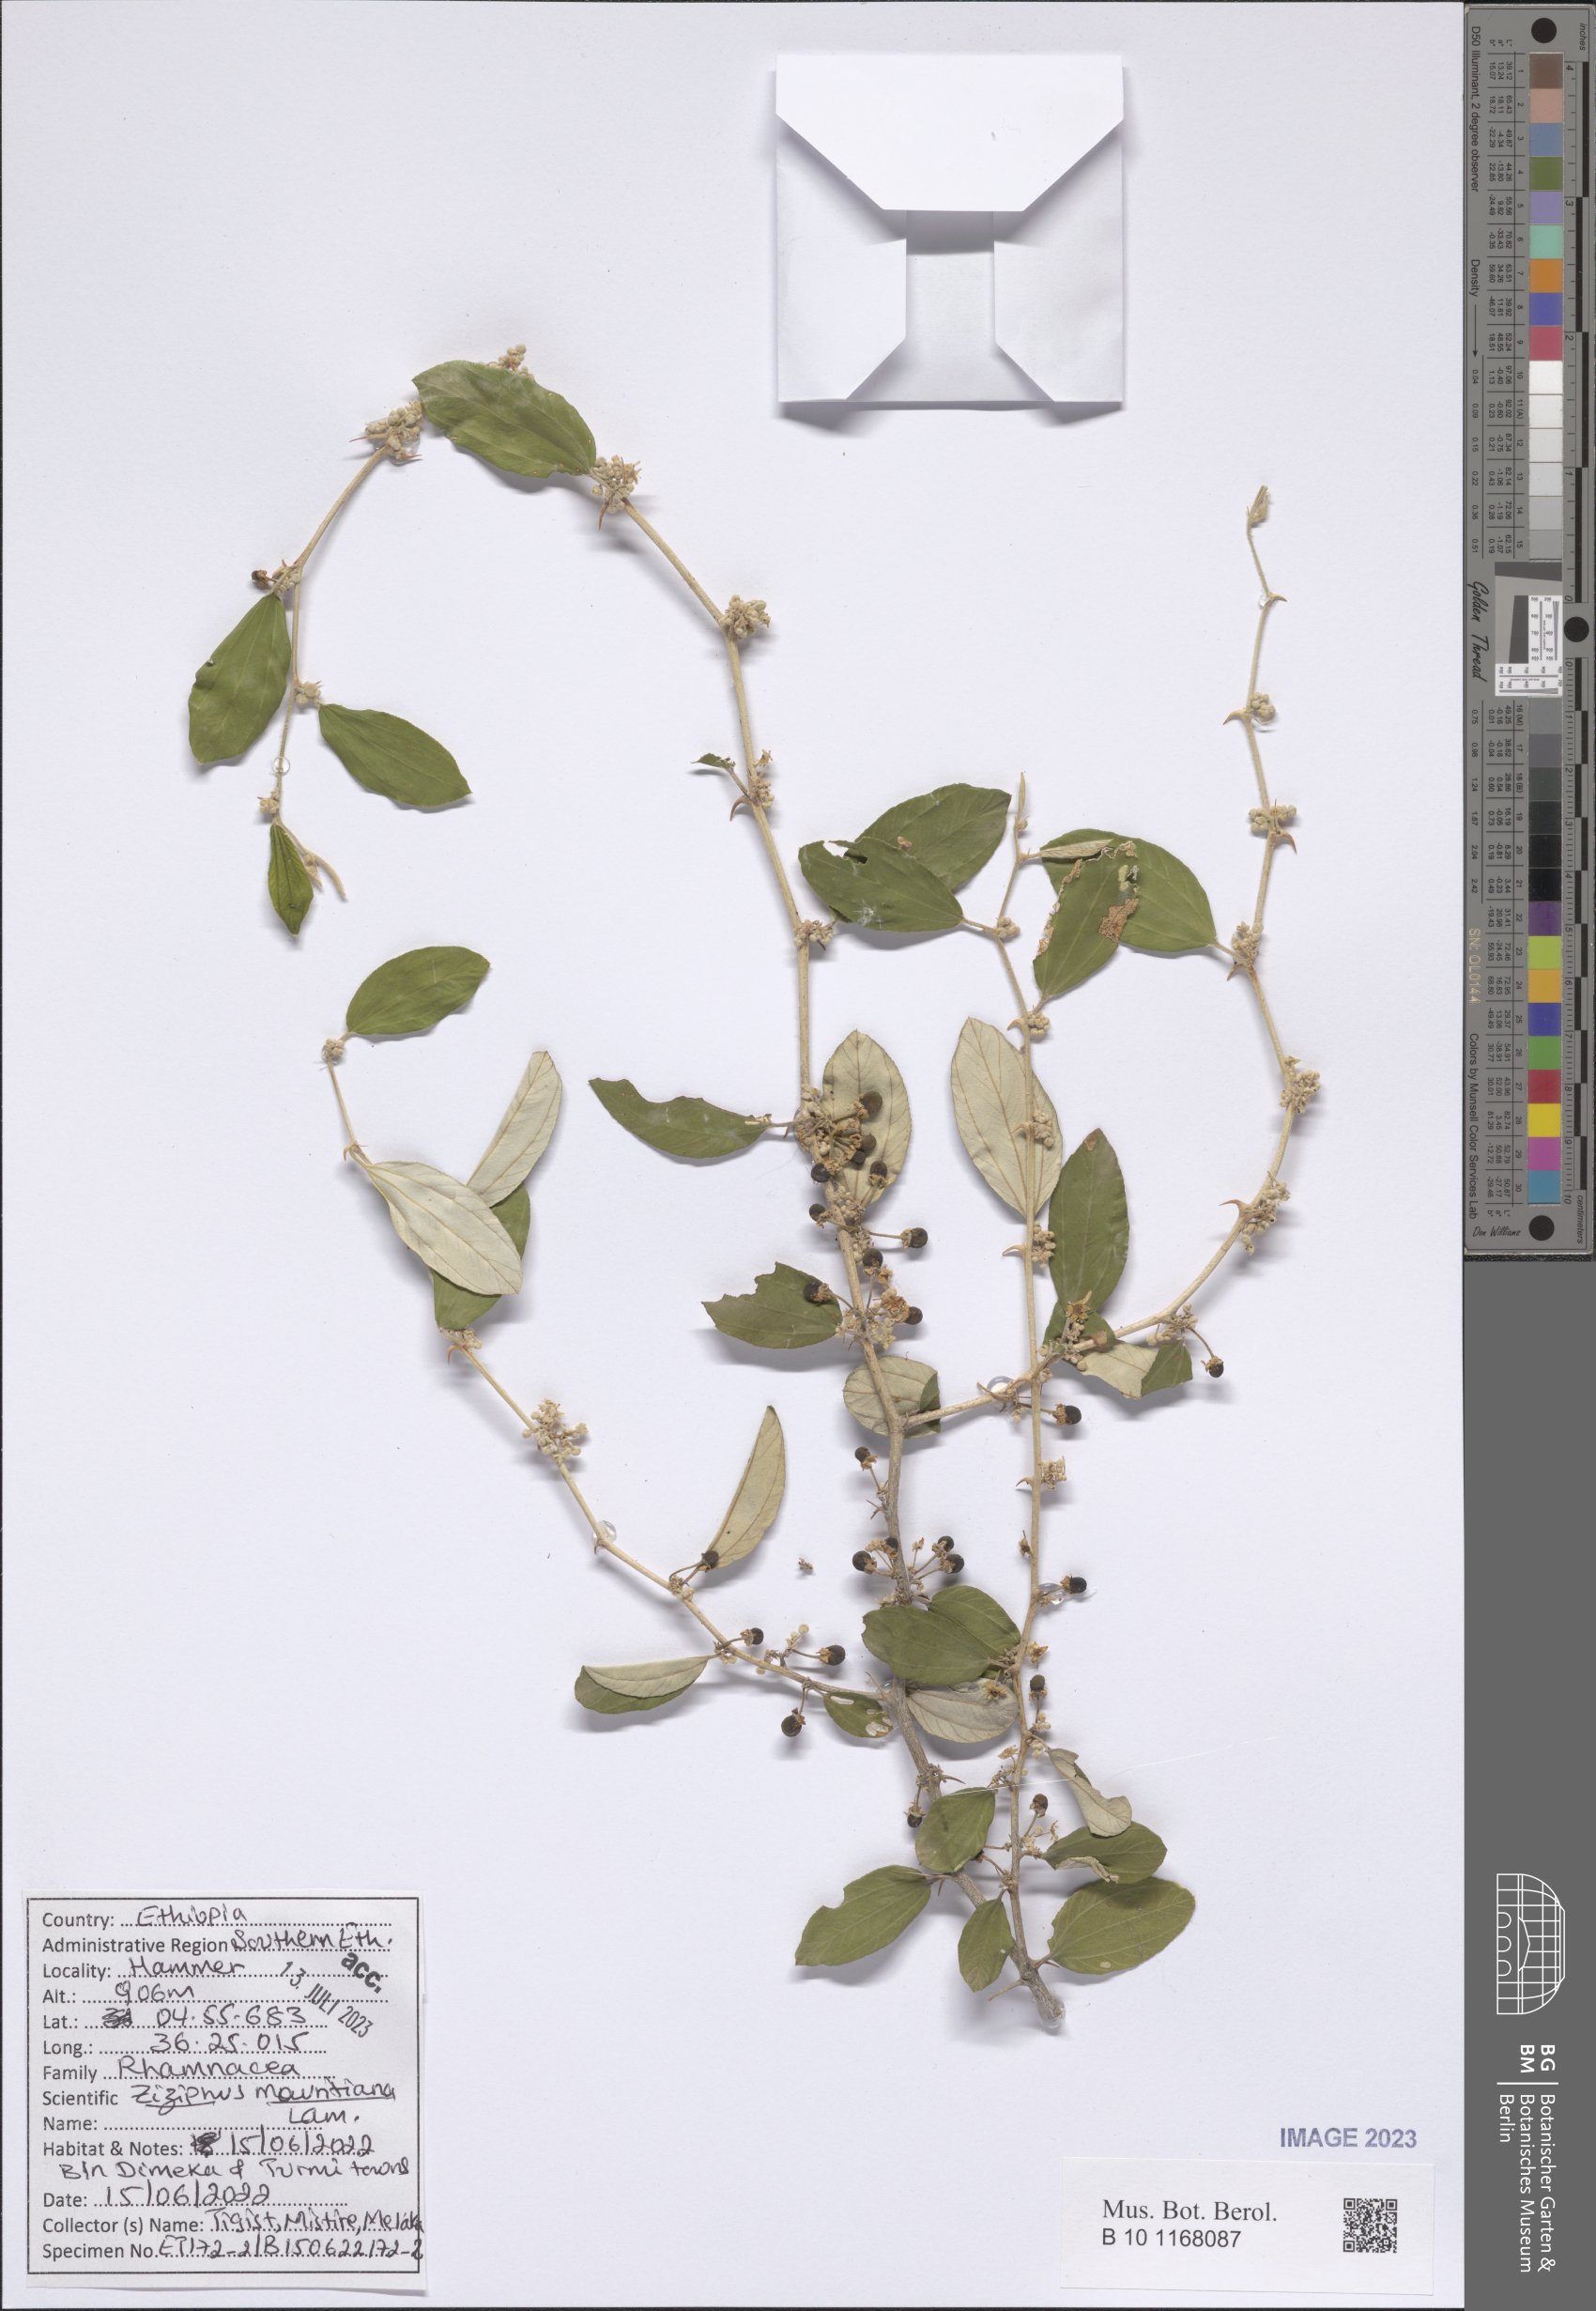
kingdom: Plantae
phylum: Tracheophyta
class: Magnoliopsida
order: Rosales
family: Rhamnaceae
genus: Ziziphus
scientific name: Ziziphus mucronata
